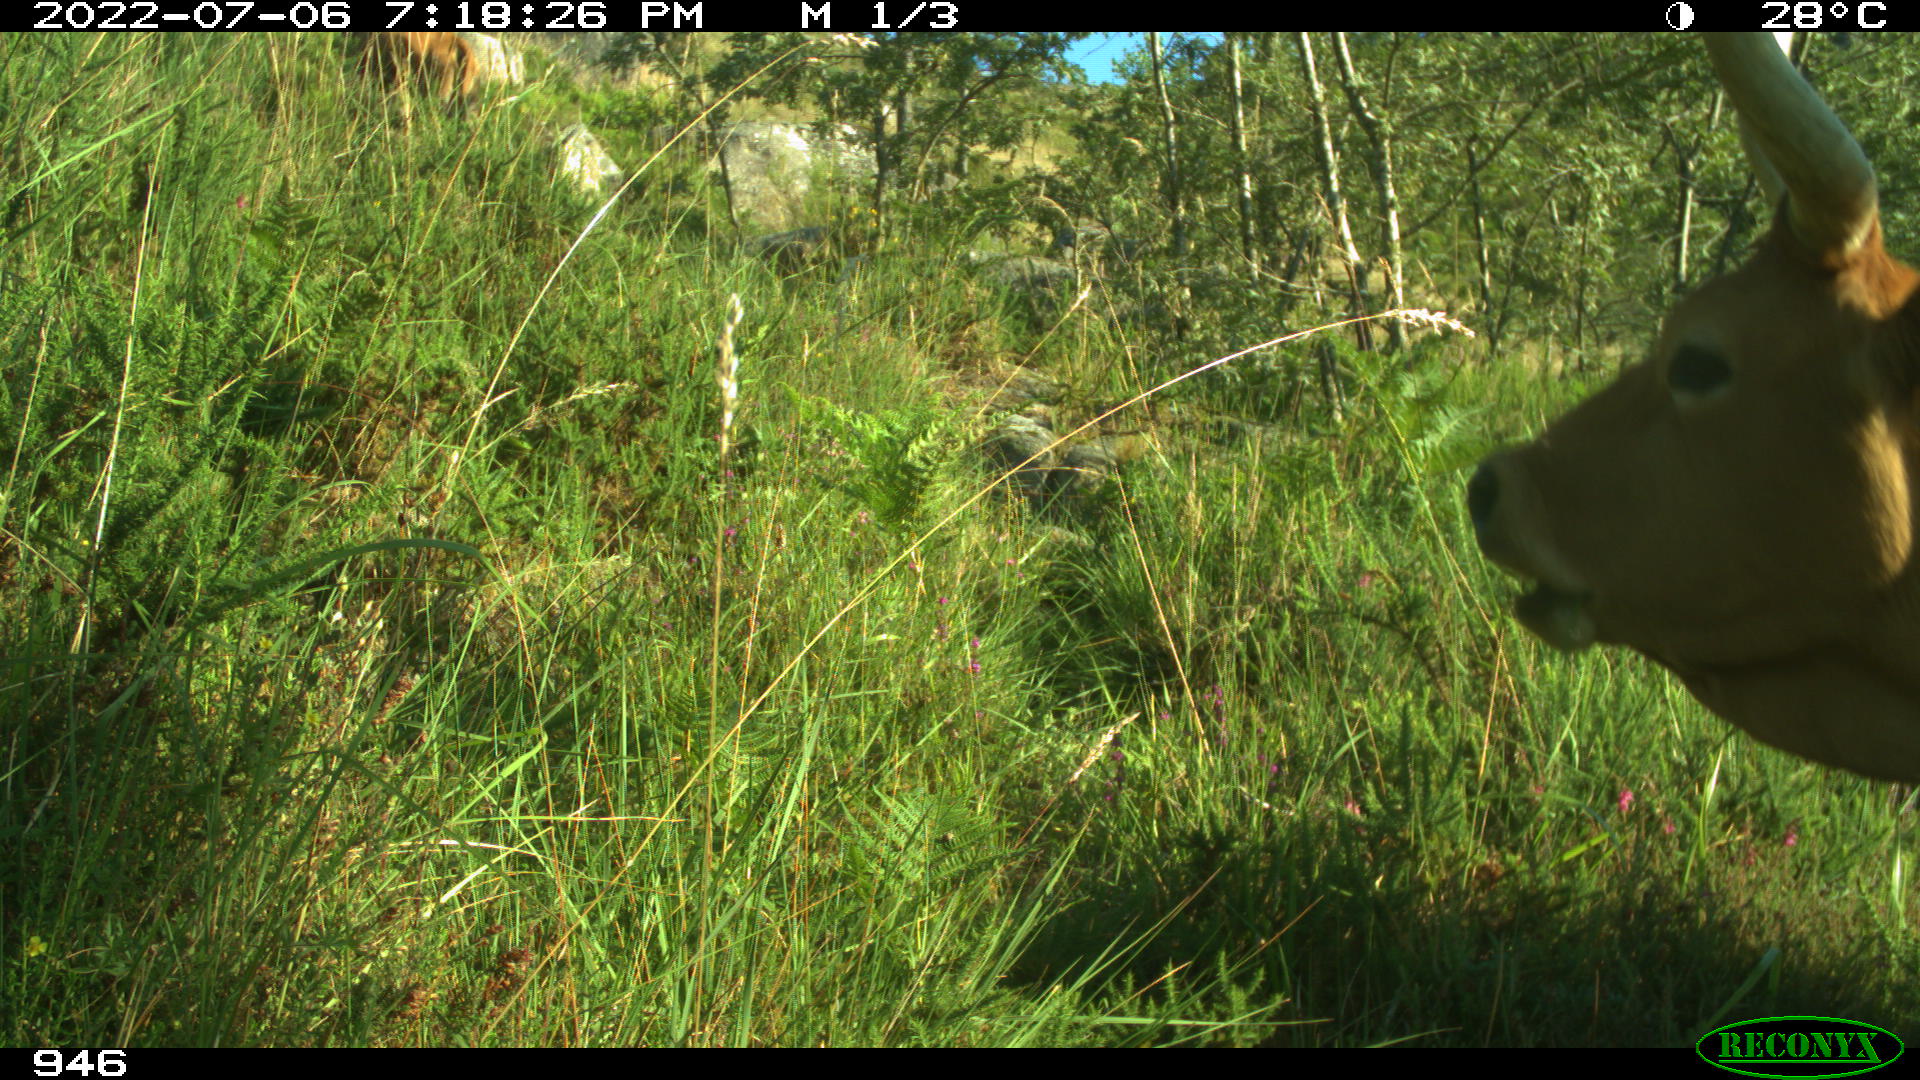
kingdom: Animalia
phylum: Chordata
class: Mammalia
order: Artiodactyla
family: Bovidae
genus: Bos
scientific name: Bos taurus
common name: Domesticated cattle
